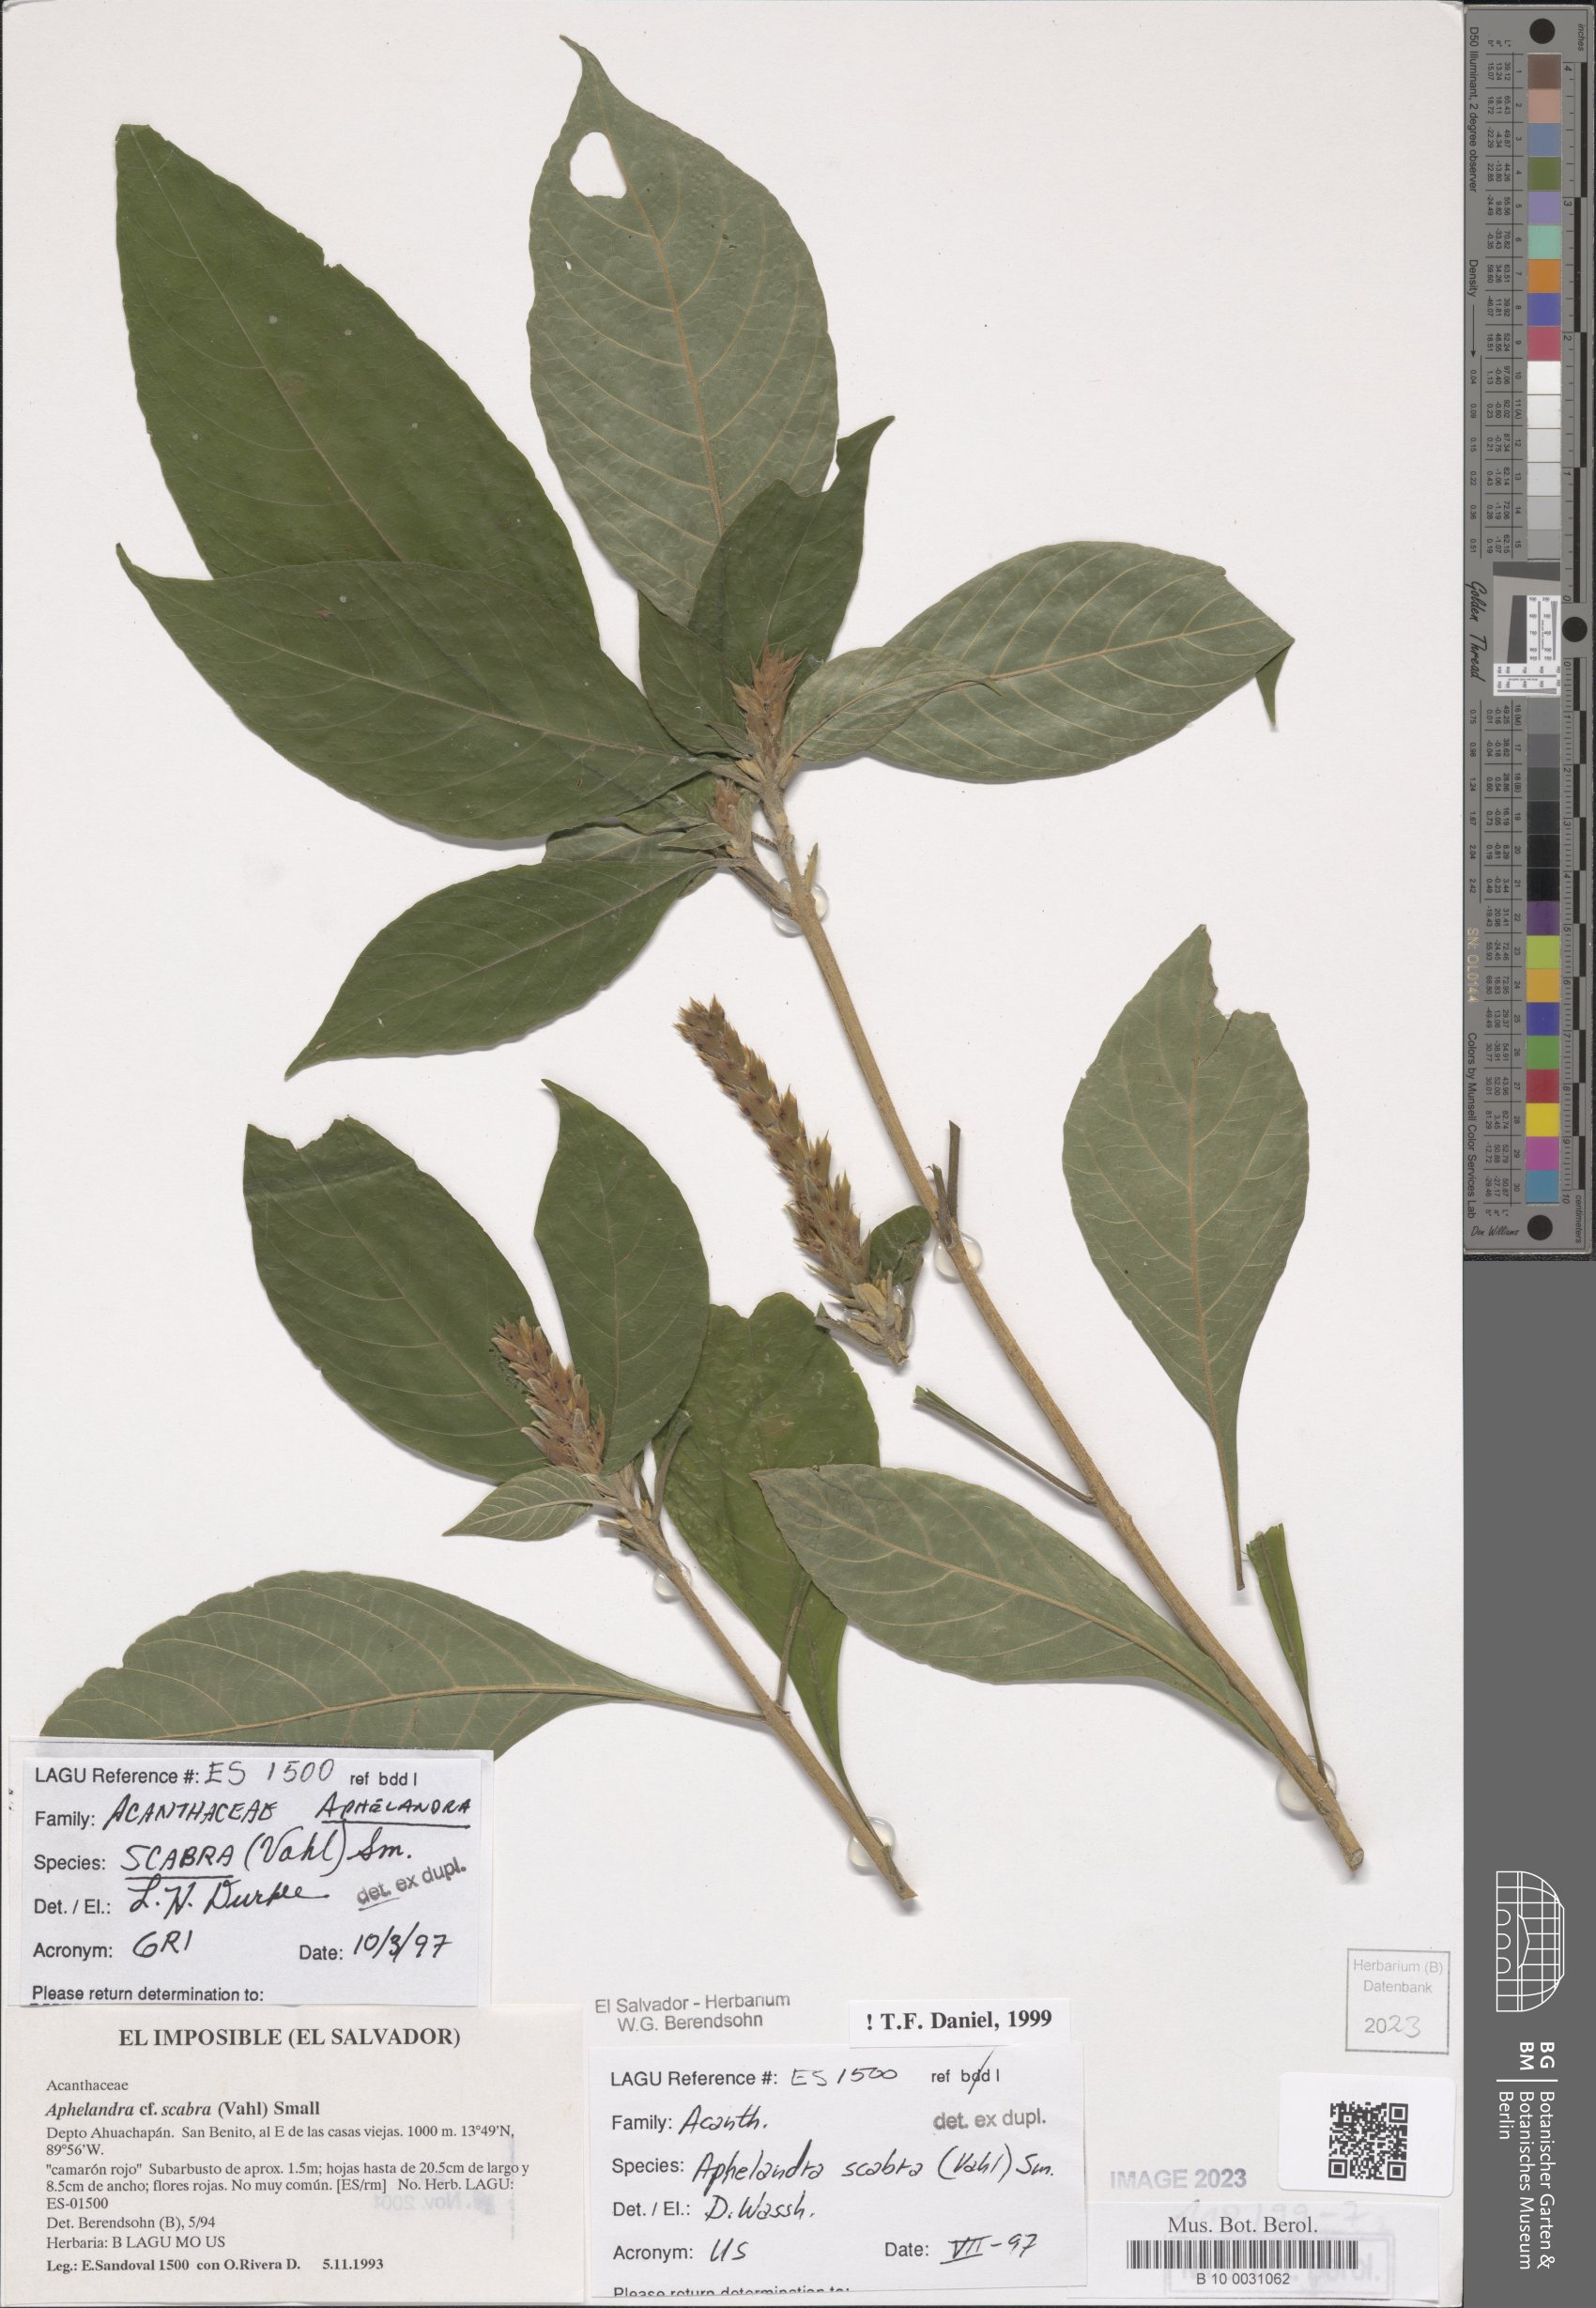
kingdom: Plantae
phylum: Tracheophyta
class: Magnoliopsida
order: Lamiales
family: Acanthaceae
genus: Aphelandra
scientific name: Aphelandra scabra
